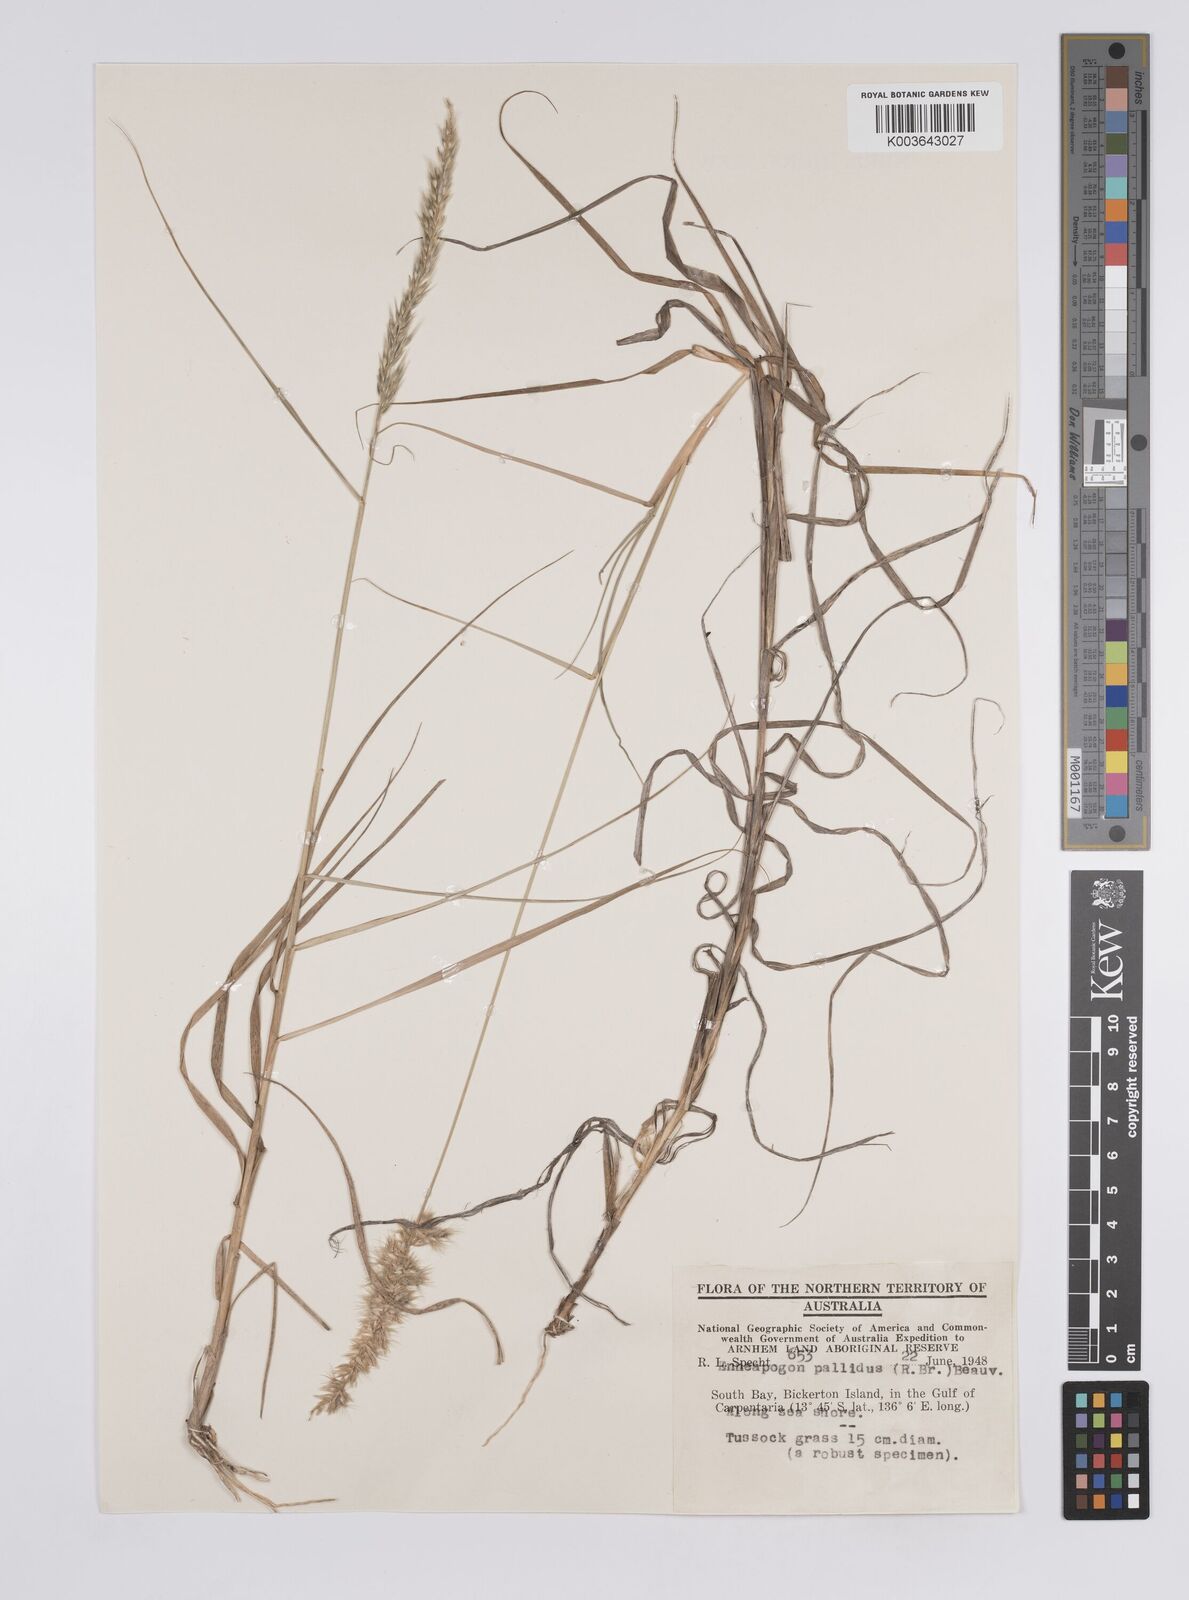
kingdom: Plantae
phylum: Tracheophyta
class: Liliopsida
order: Poales
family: Poaceae
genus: Enneapogon
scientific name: Enneapogon pallidus
